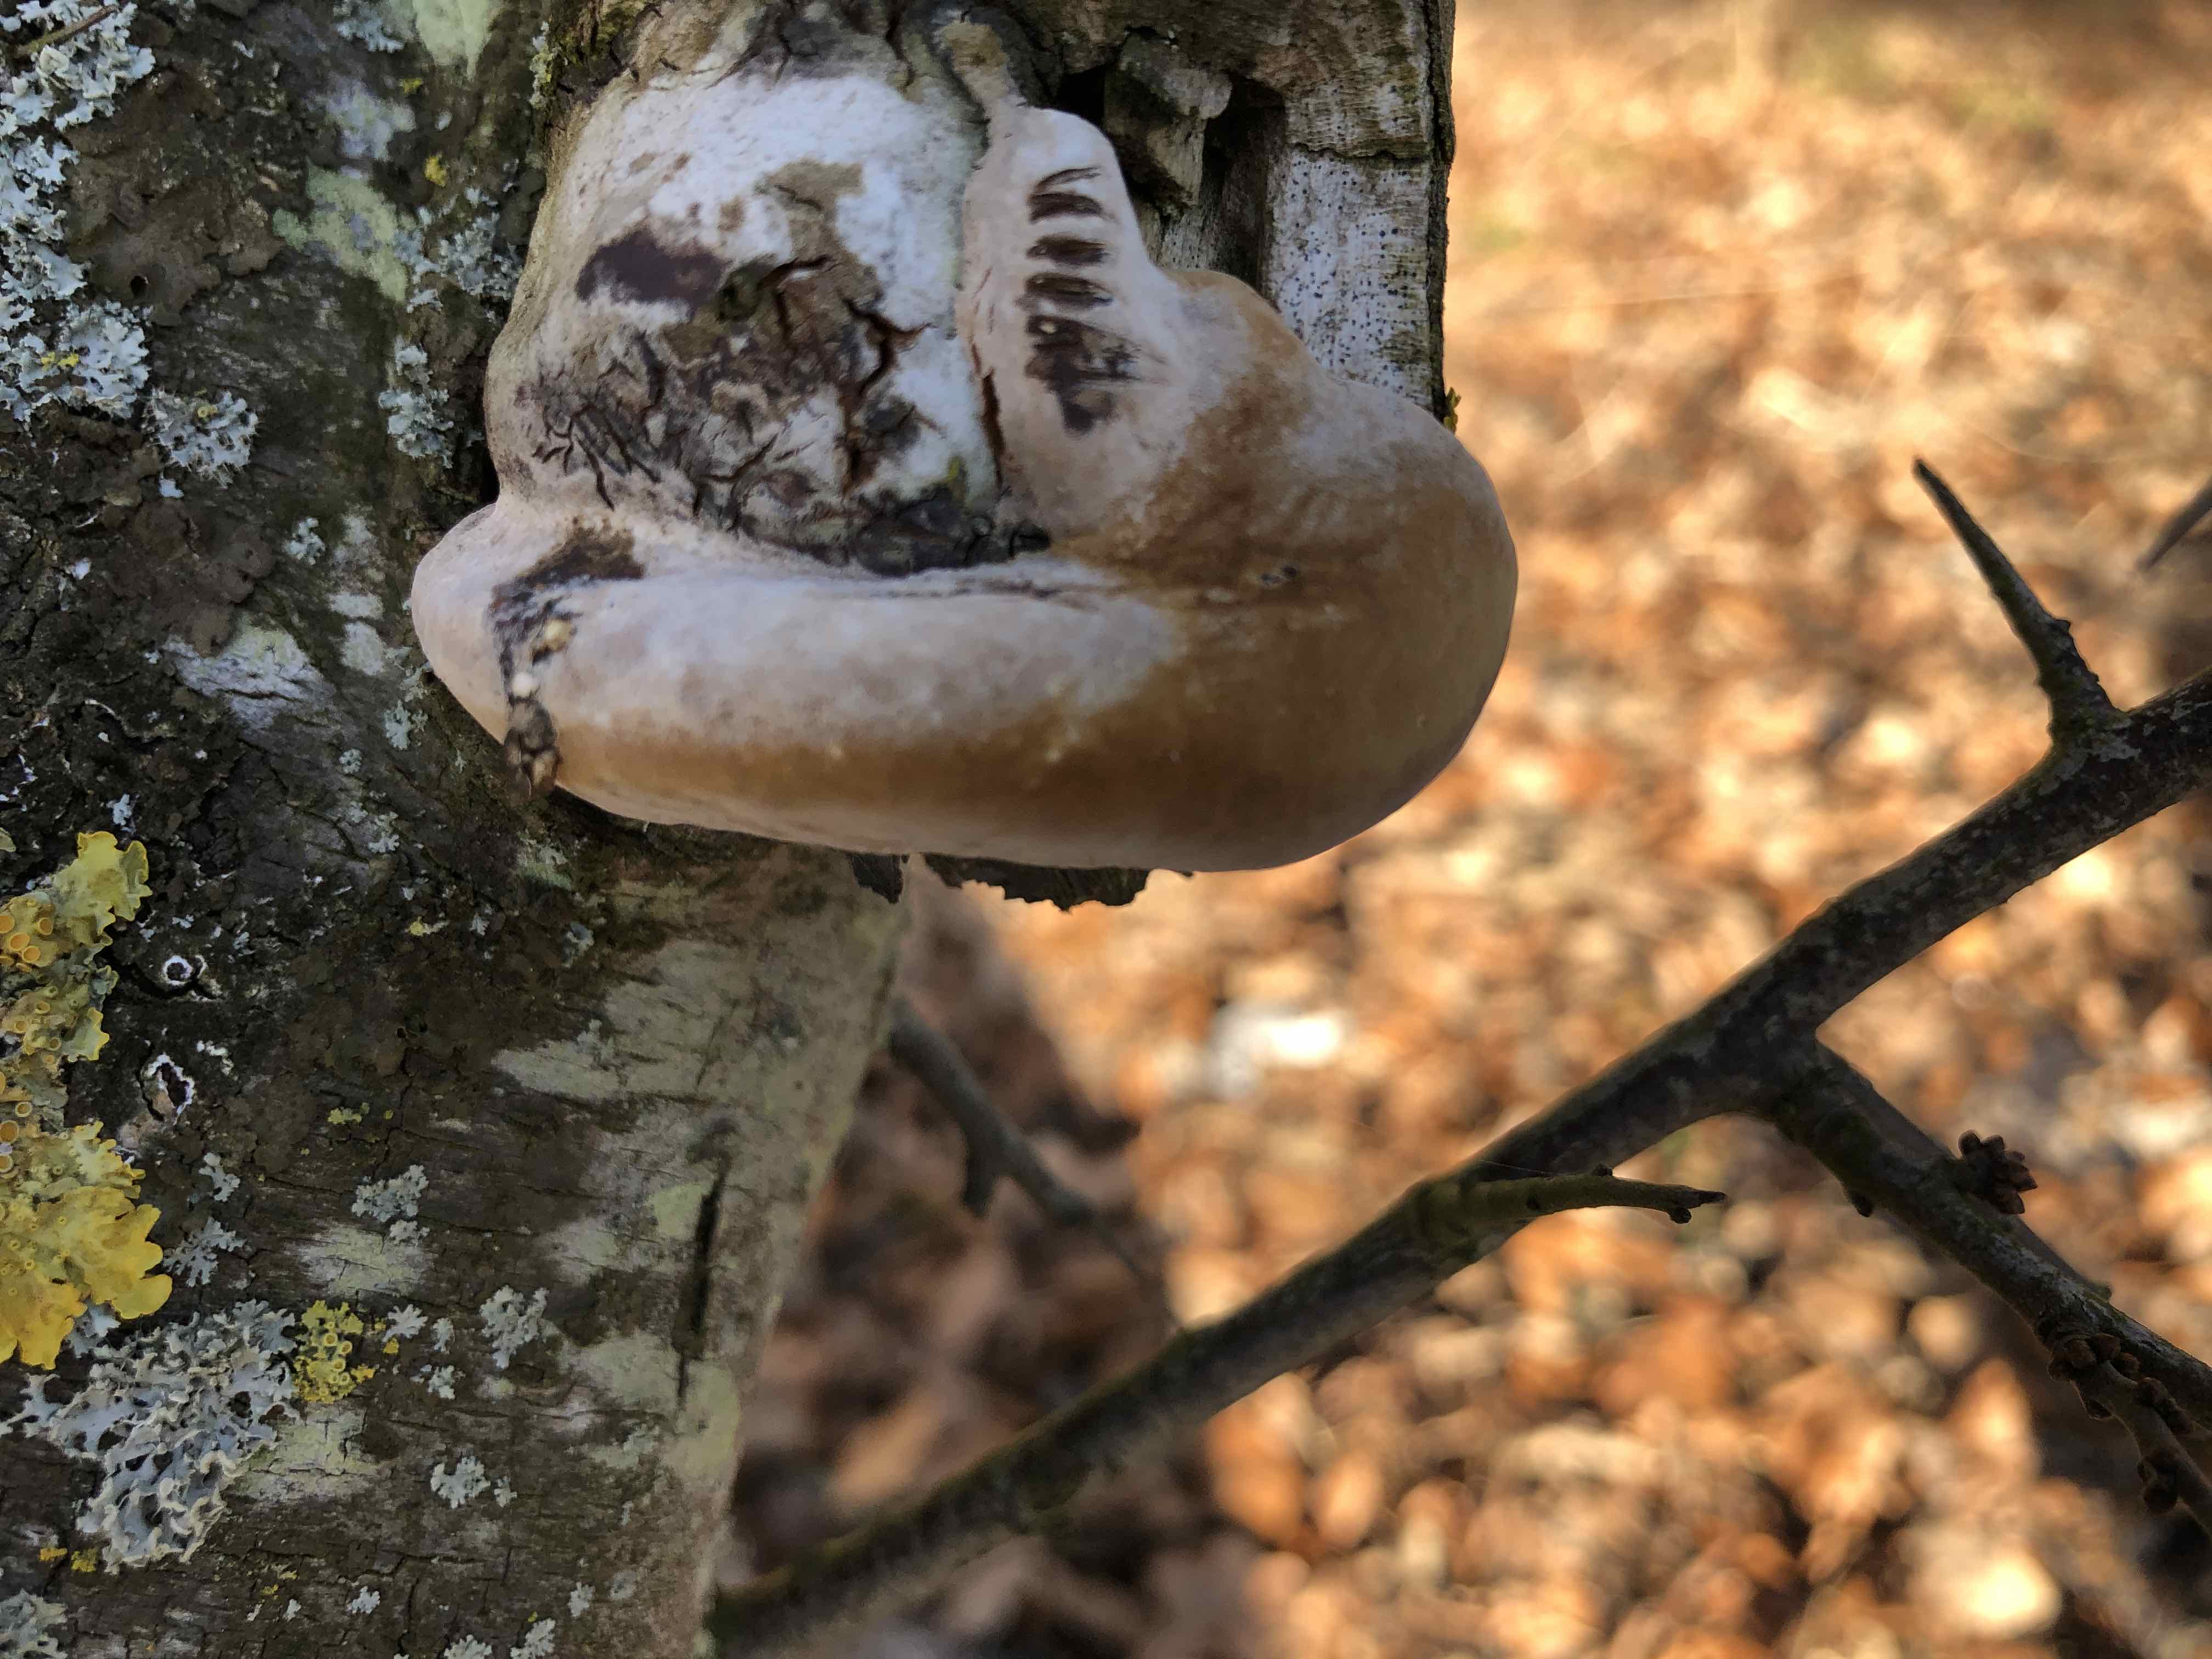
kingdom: Fungi
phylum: Basidiomycota
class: Agaricomycetes
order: Hymenochaetales
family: Hymenochaetaceae
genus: Phellinus
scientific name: Phellinus pomaceus
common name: blomme-ildporesvamp
